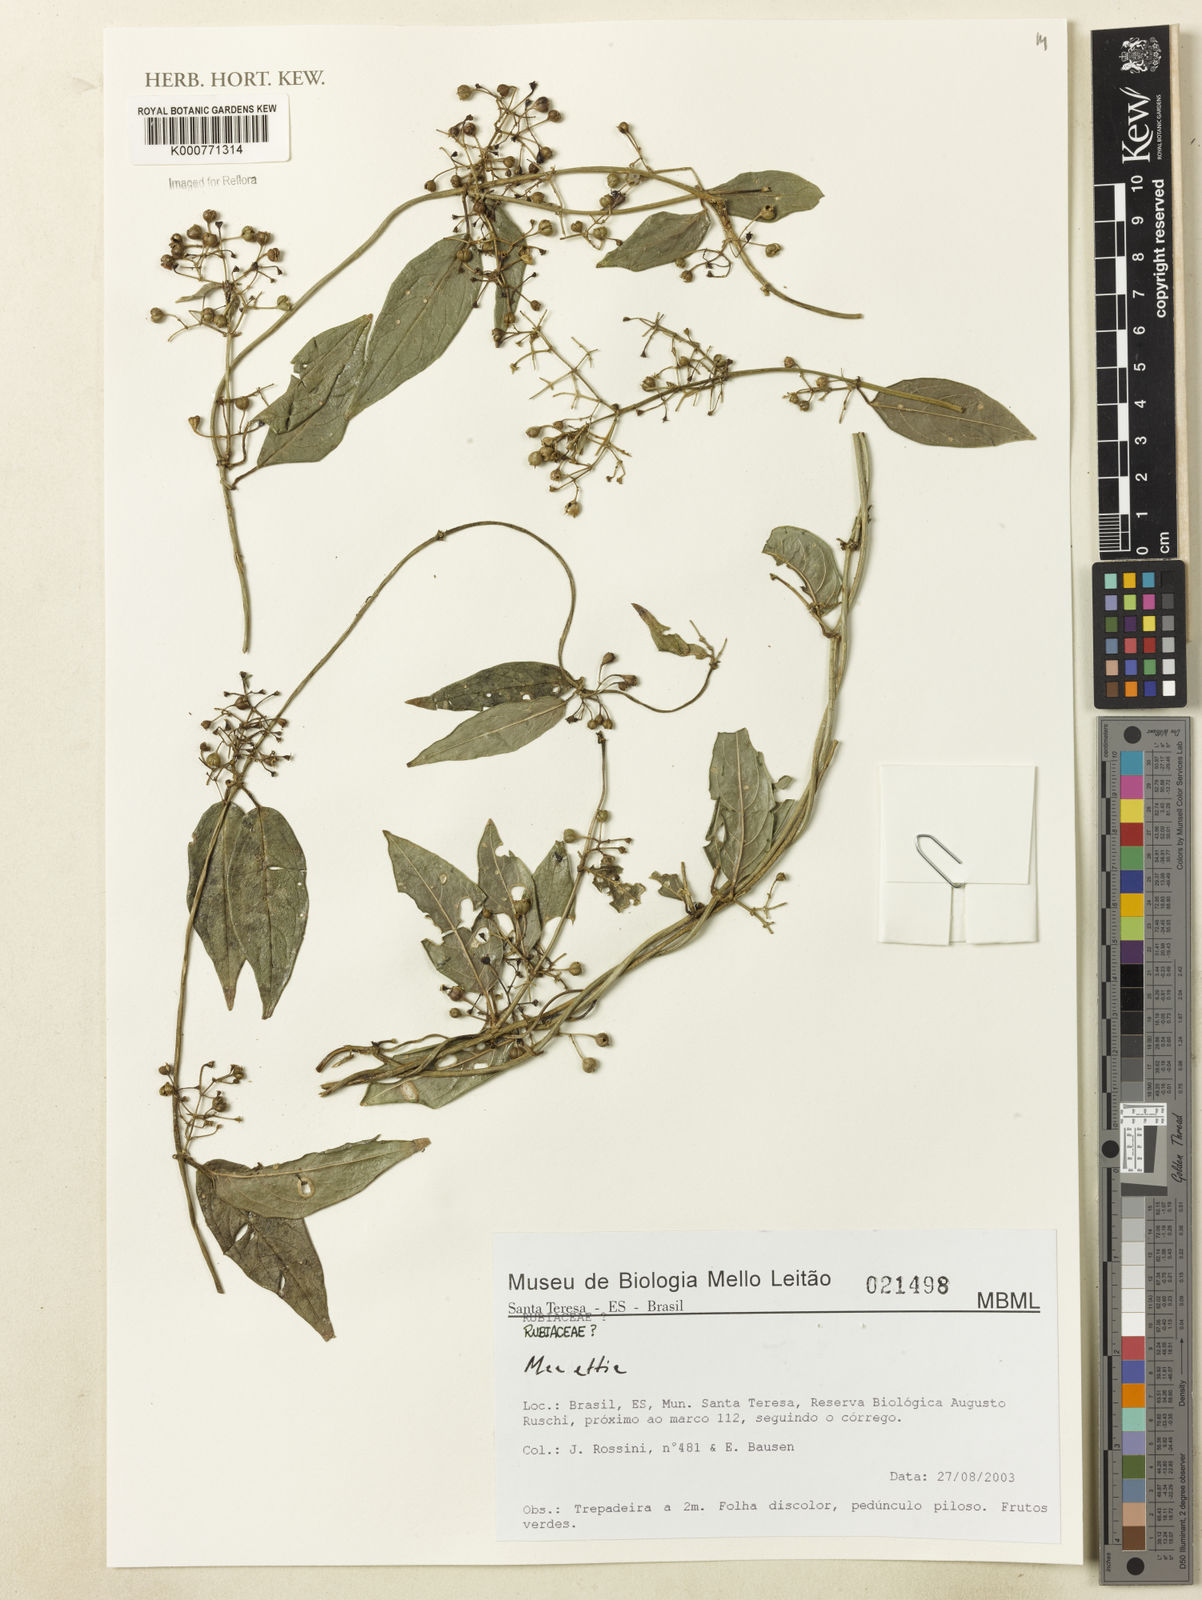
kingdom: Plantae
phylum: Tracheophyta
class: Magnoliopsida
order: Gentianales
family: Rubiaceae
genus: Manettia
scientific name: Manettia
